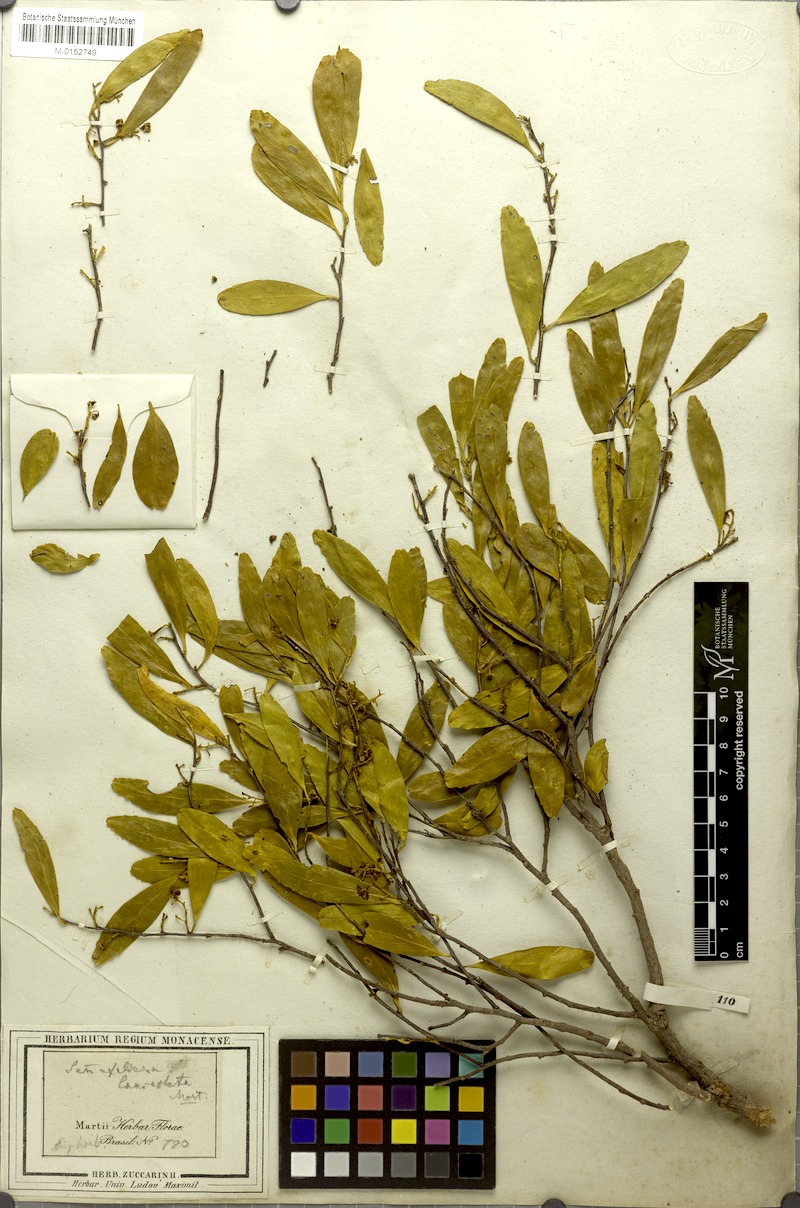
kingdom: Plantae
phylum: Tracheophyta
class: Magnoliopsida
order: Ericales
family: Symplocaceae
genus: Symplocos
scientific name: Symplocos oblongifolia
